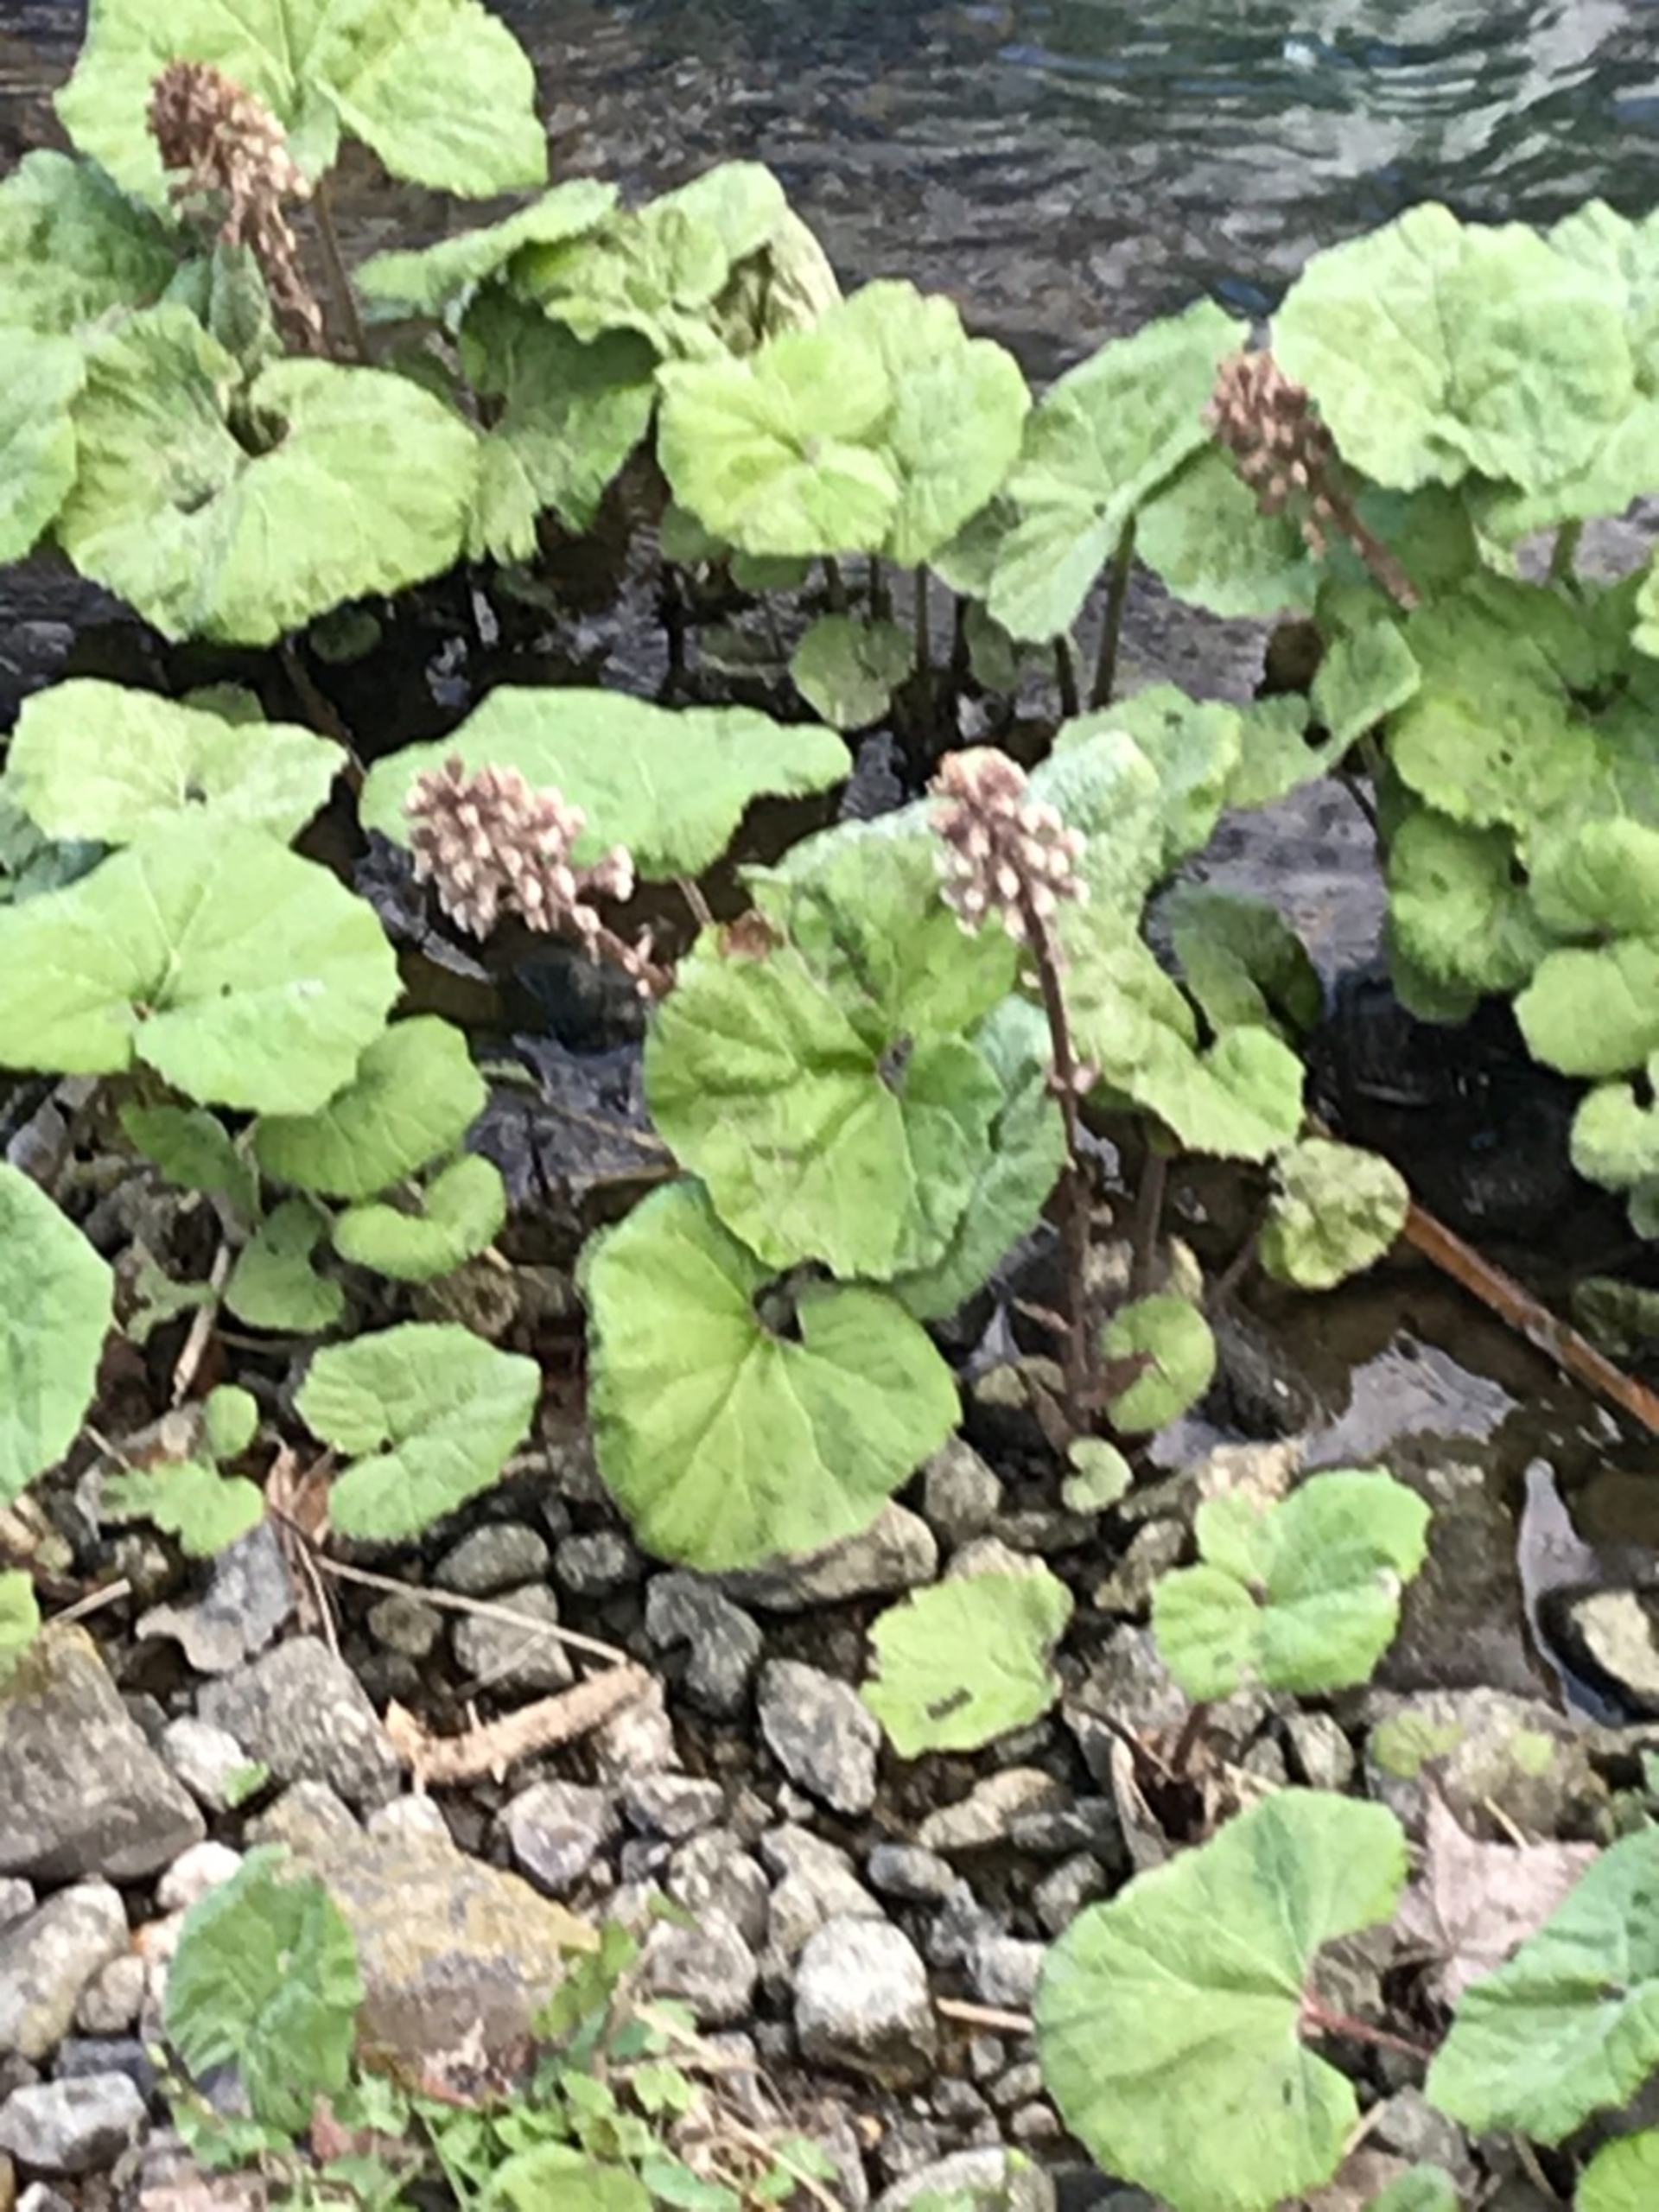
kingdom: Plantae
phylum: Tracheophyta
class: Magnoliopsida
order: Asterales
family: Asteraceae
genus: Petasites
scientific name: Petasites hybridus
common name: Rød hestehov
